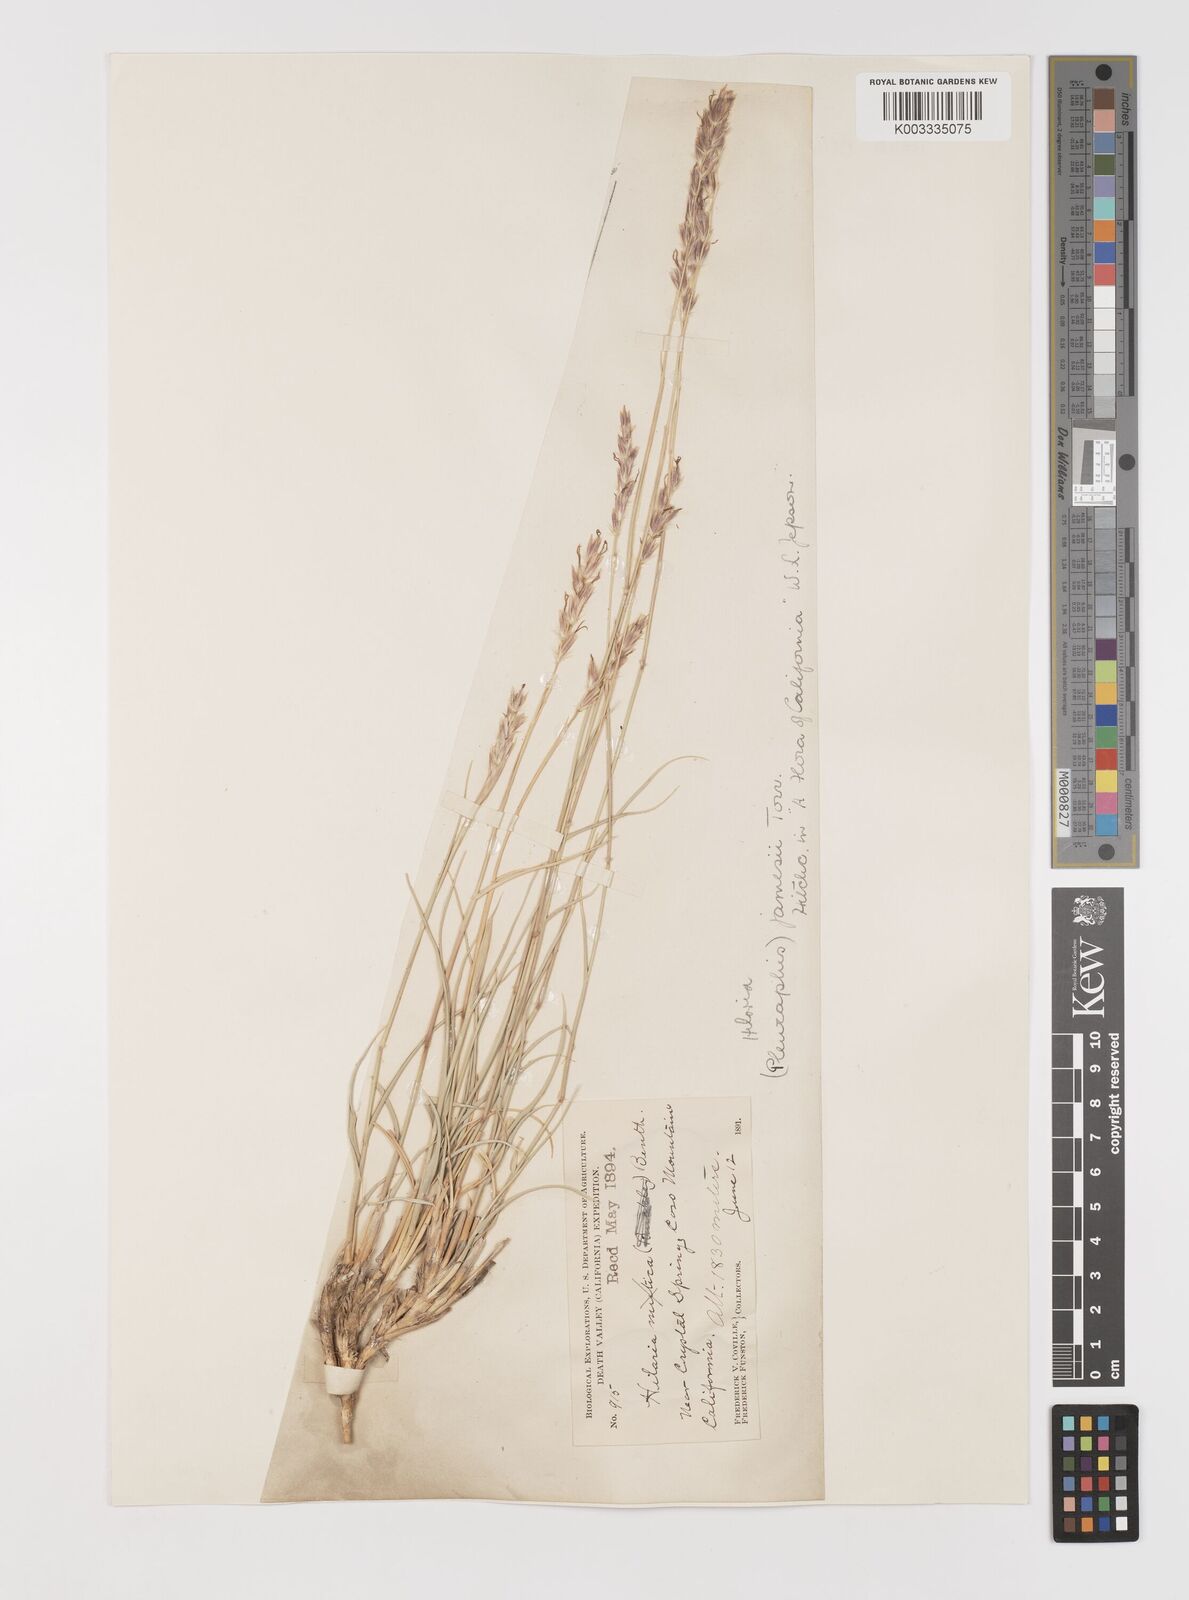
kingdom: Plantae
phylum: Tracheophyta
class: Liliopsida
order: Poales
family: Poaceae
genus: Hilaria
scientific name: Hilaria jamesii
